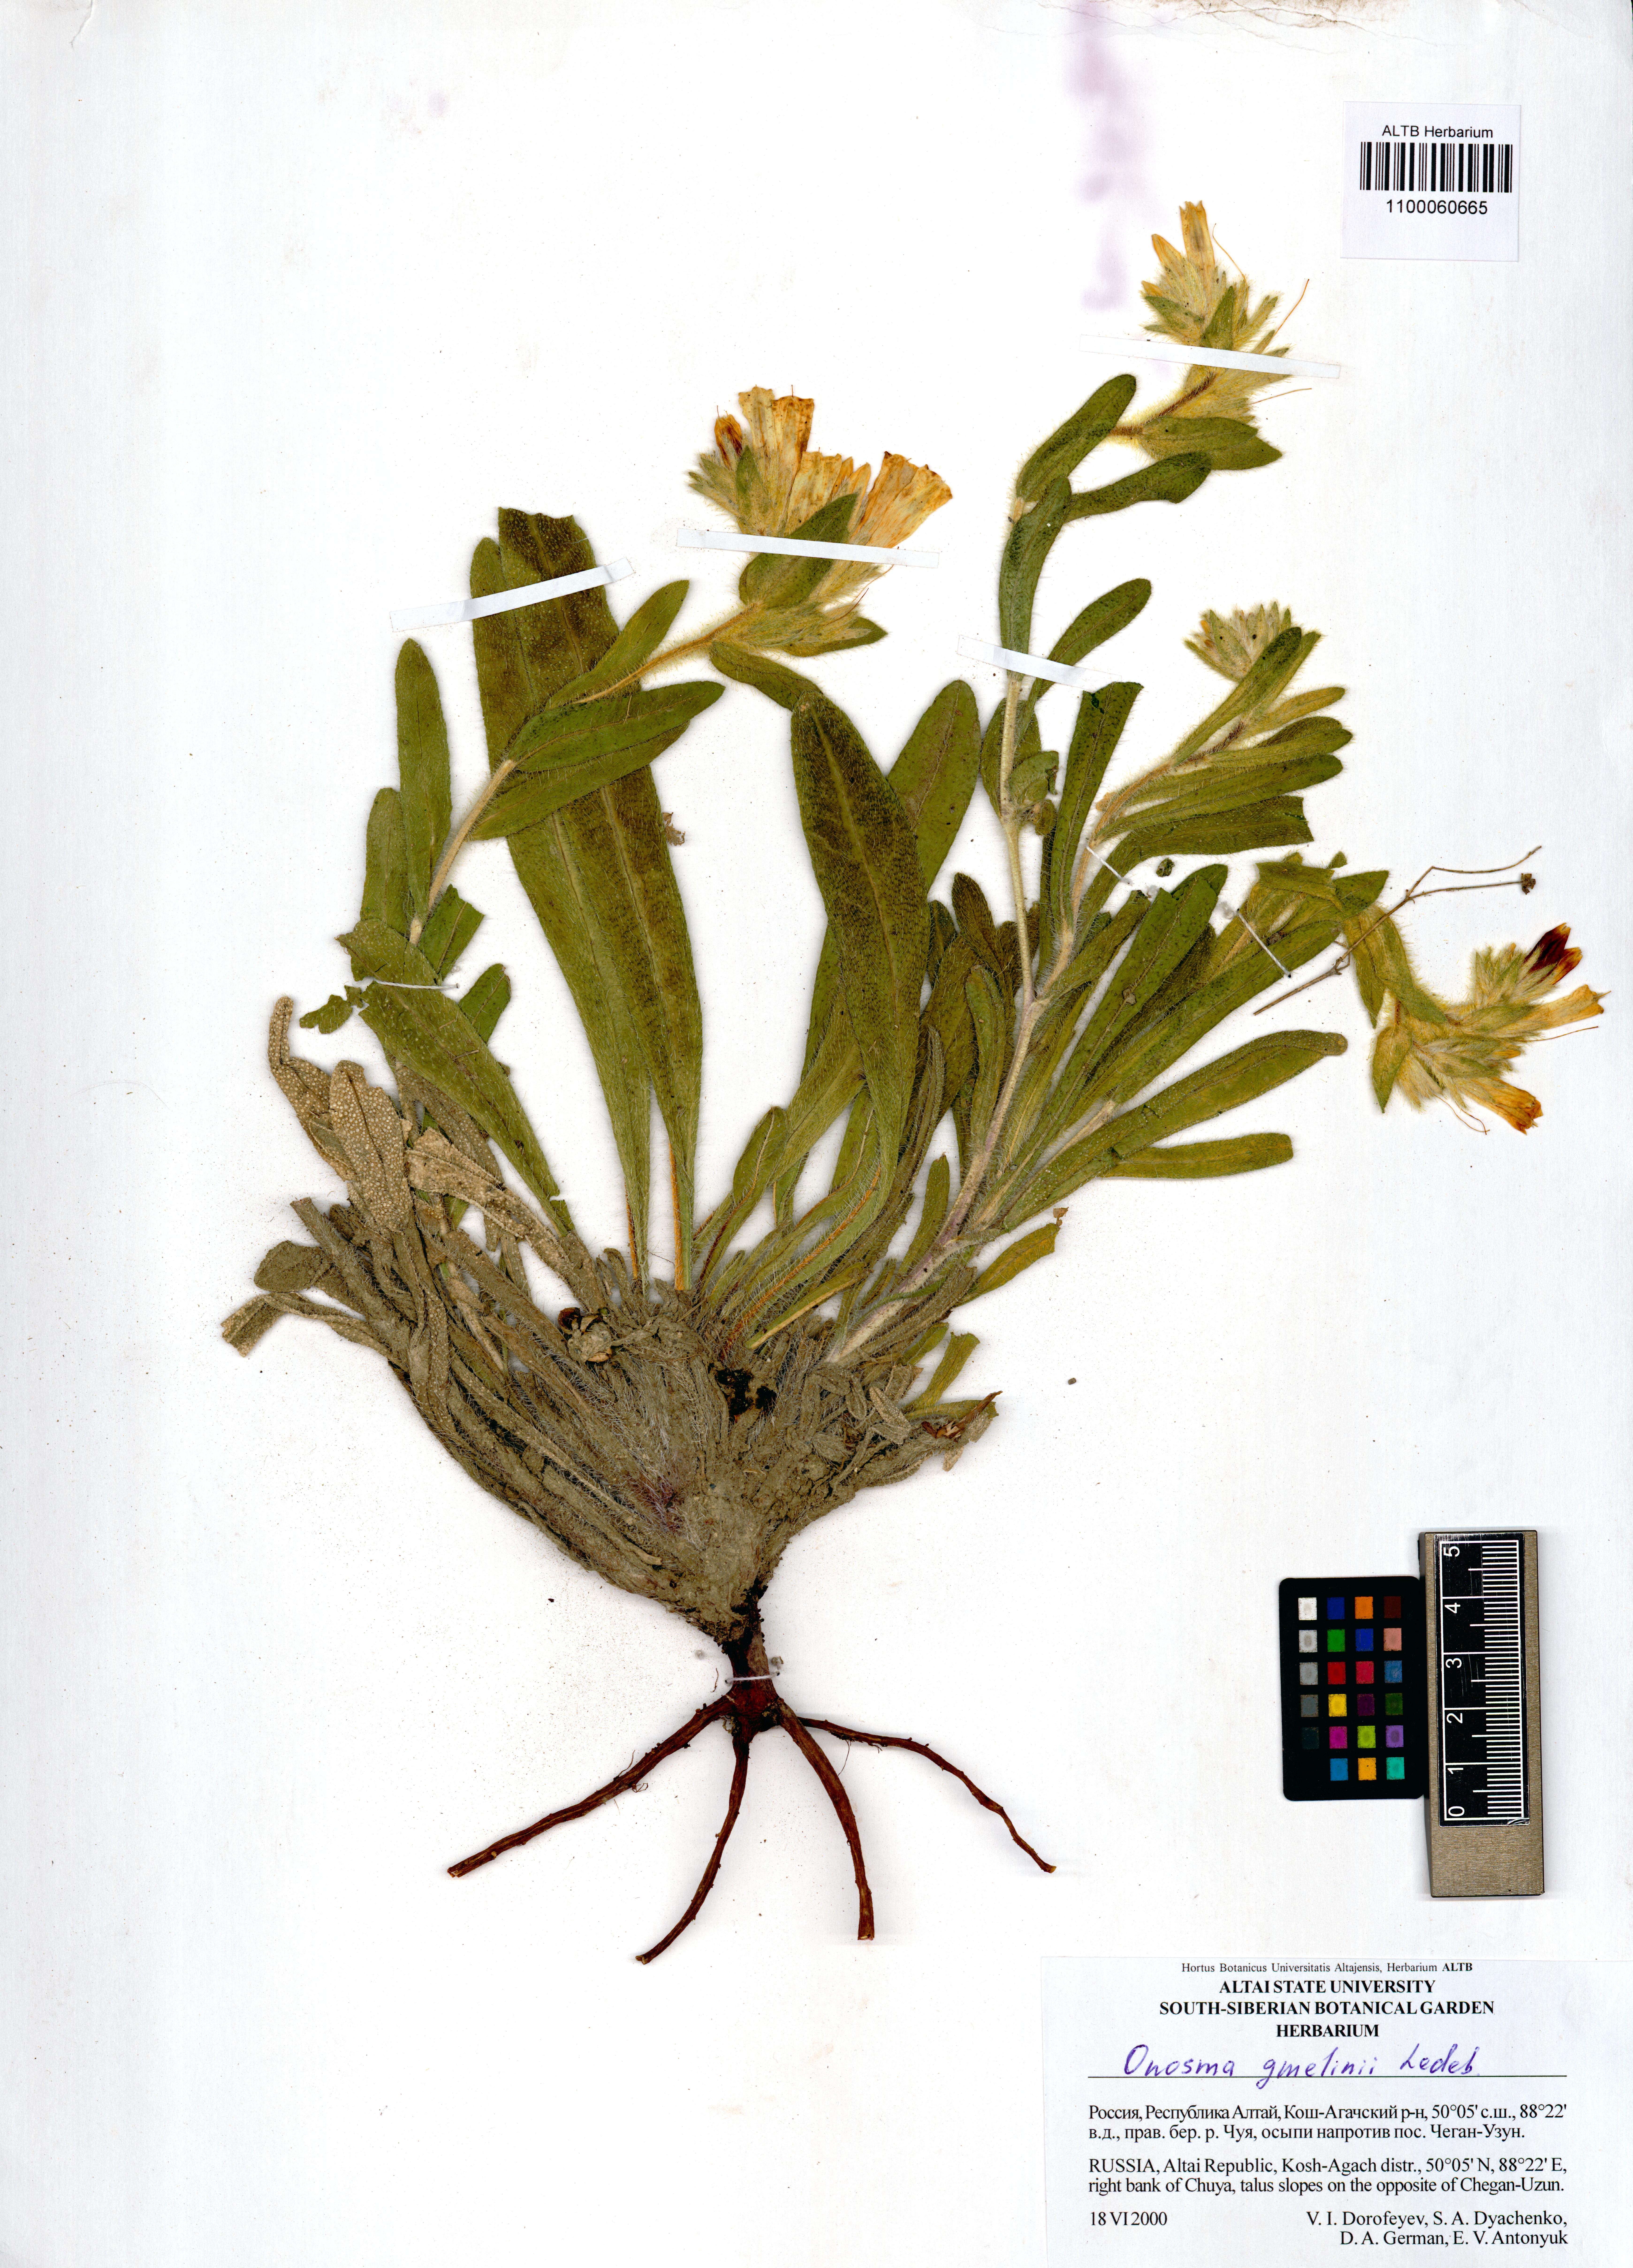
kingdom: Plantae
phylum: Tracheophyta
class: Magnoliopsida
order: Boraginales
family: Boraginaceae
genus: Onosma
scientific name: Onosma gmelinii
